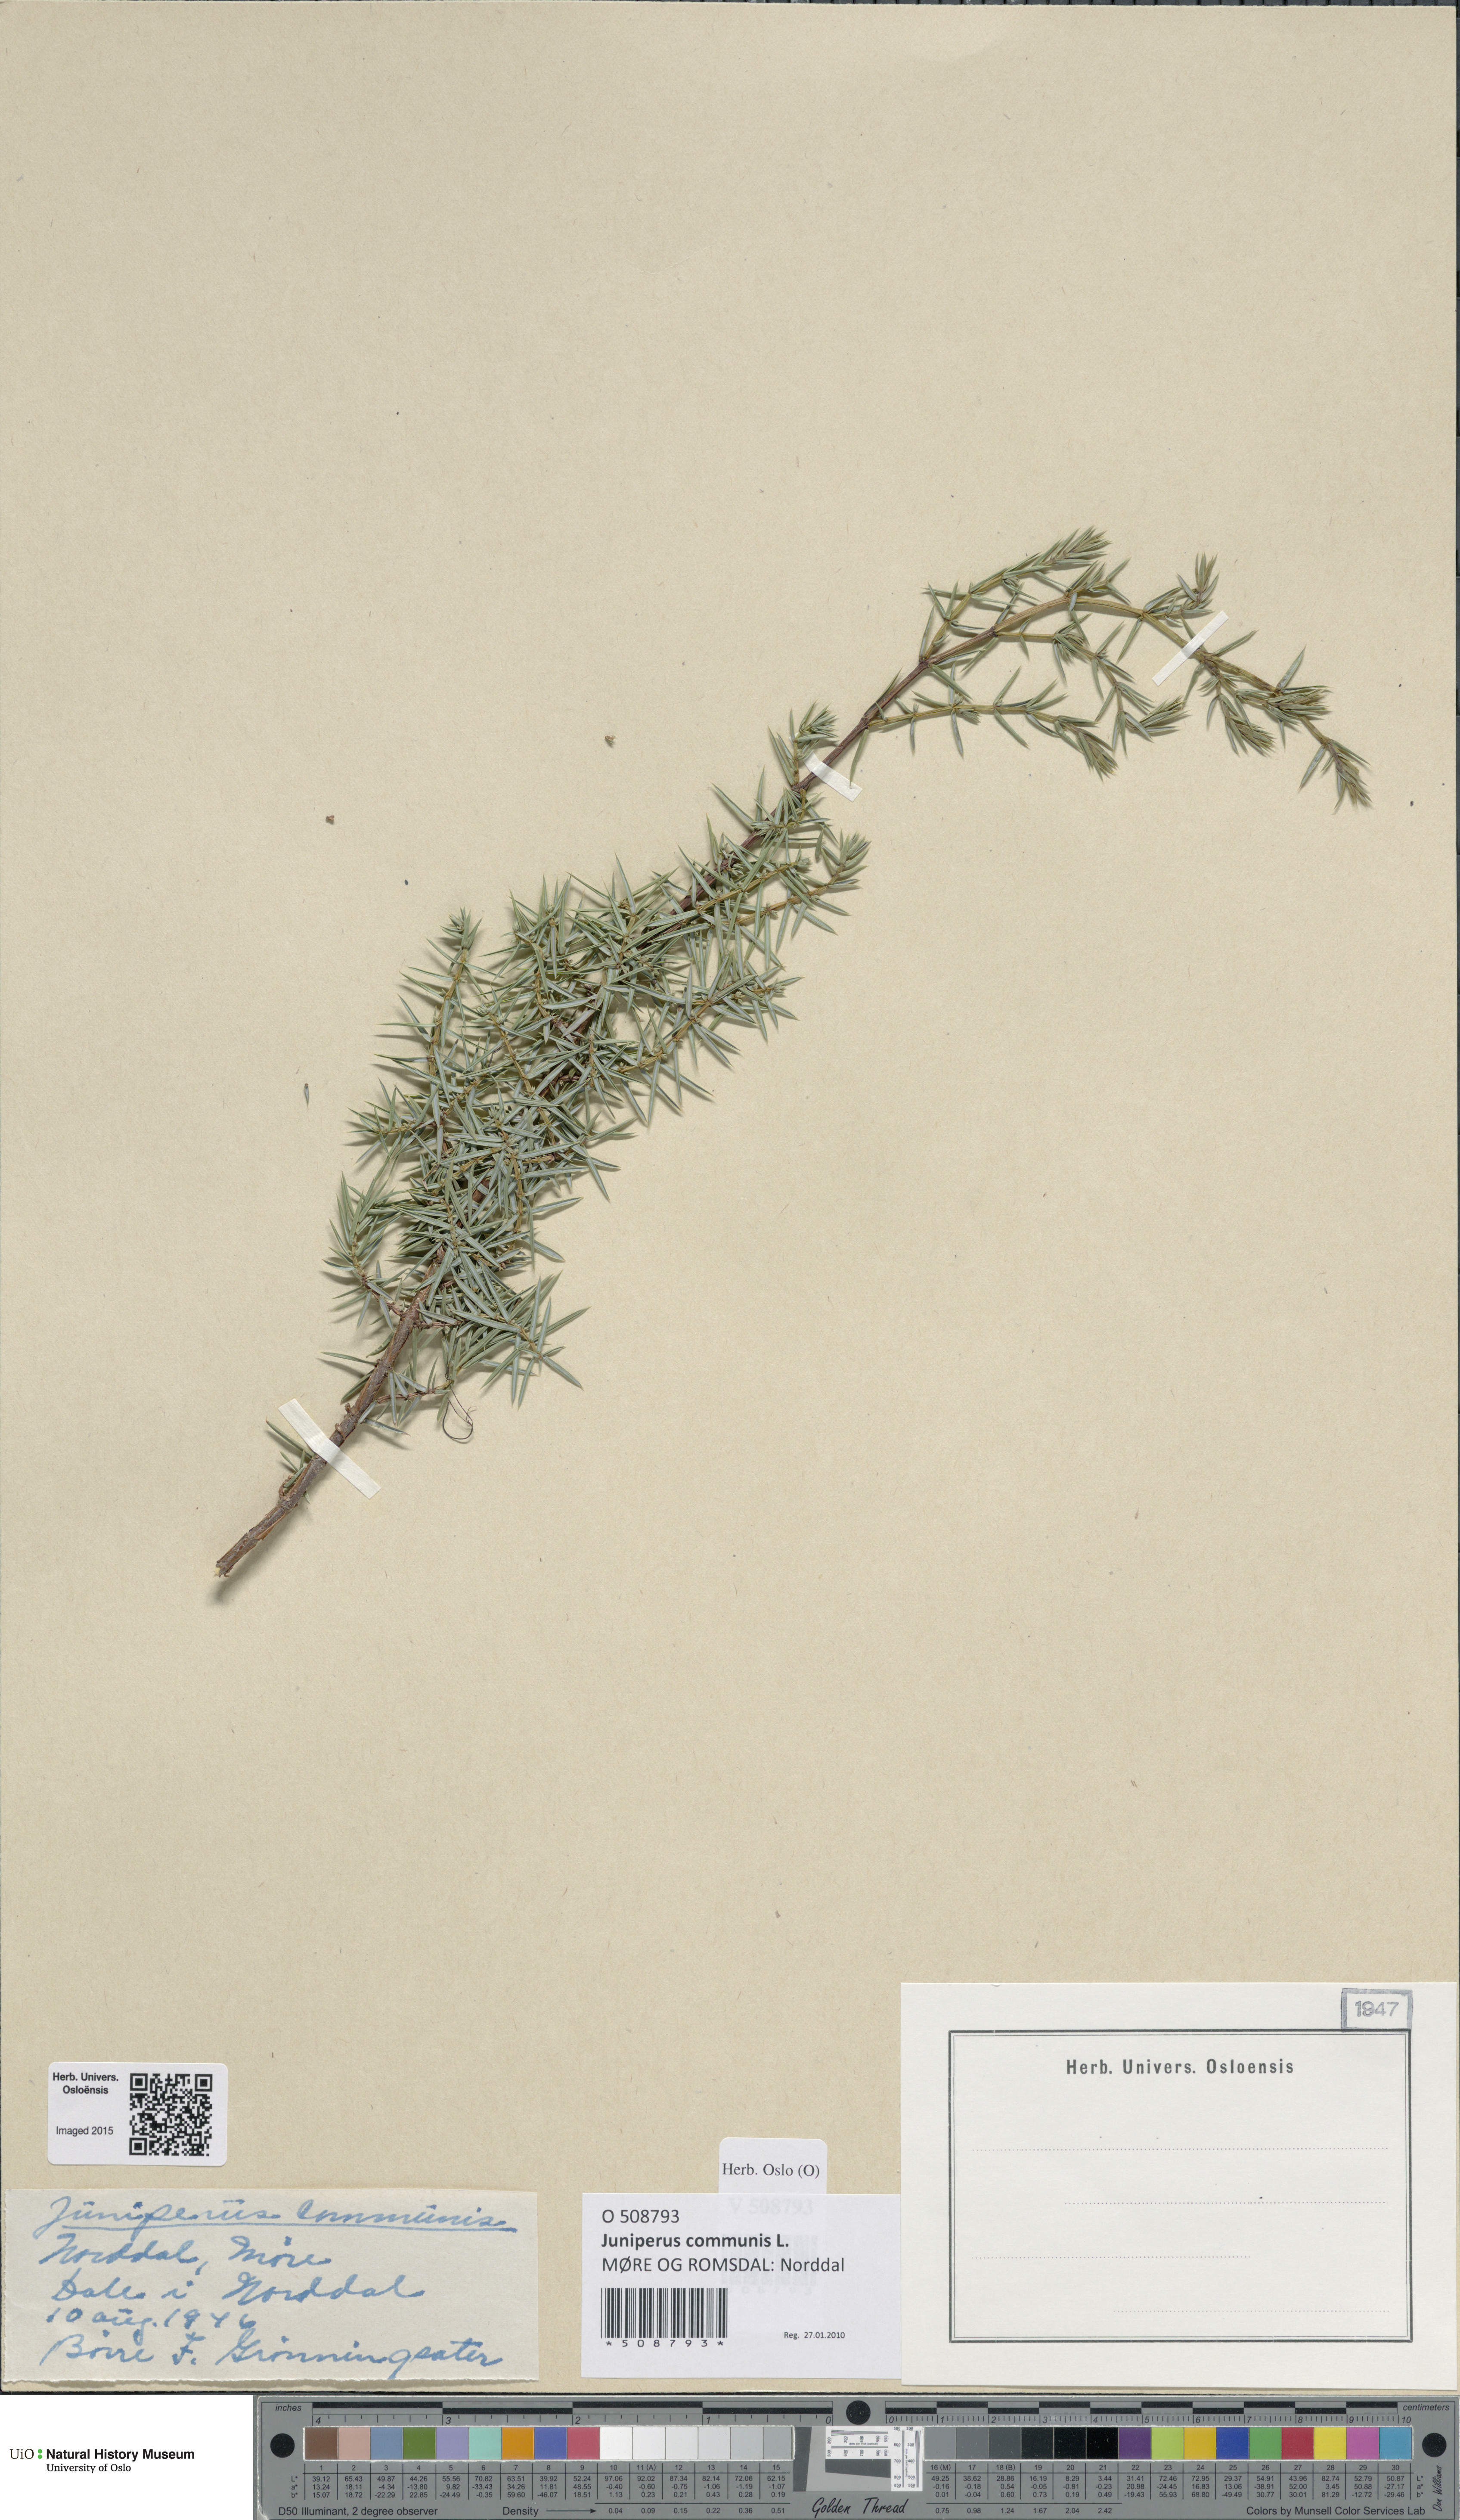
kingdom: Plantae
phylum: Tracheophyta
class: Pinopsida
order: Pinales
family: Cupressaceae
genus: Juniperus
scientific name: Juniperus communis
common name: Common juniper
